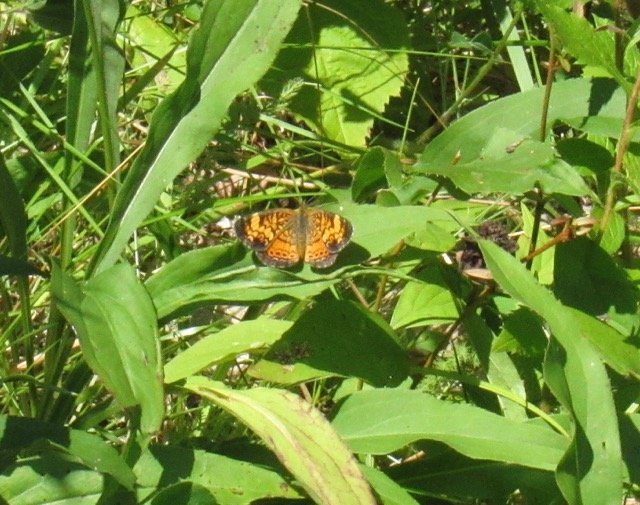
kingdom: Animalia
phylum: Arthropoda
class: Insecta
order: Lepidoptera
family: Nymphalidae
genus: Phyciodes
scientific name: Phyciodes tharos
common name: Pearl Crescent
